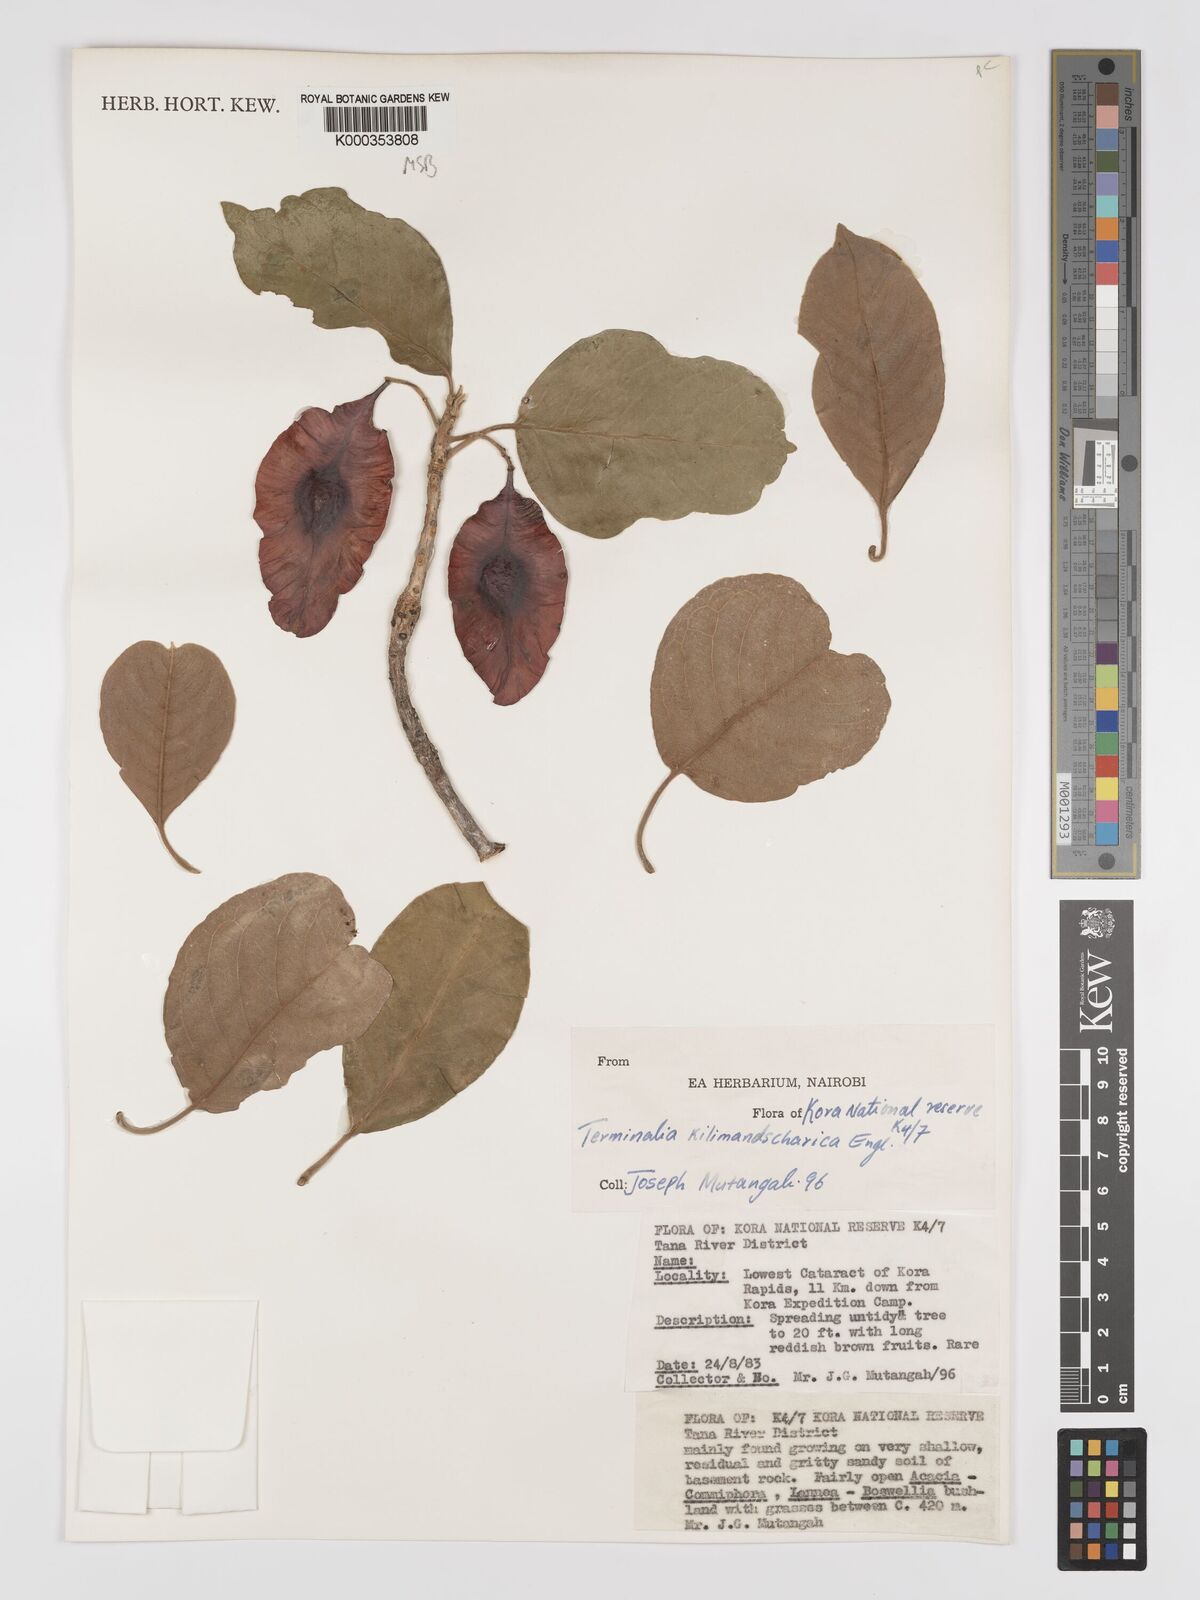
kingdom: Plantae
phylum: Tracheophyta
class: Magnoliopsida
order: Myrtales
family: Combretaceae
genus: Terminalia
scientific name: Terminalia kilimandscharica
